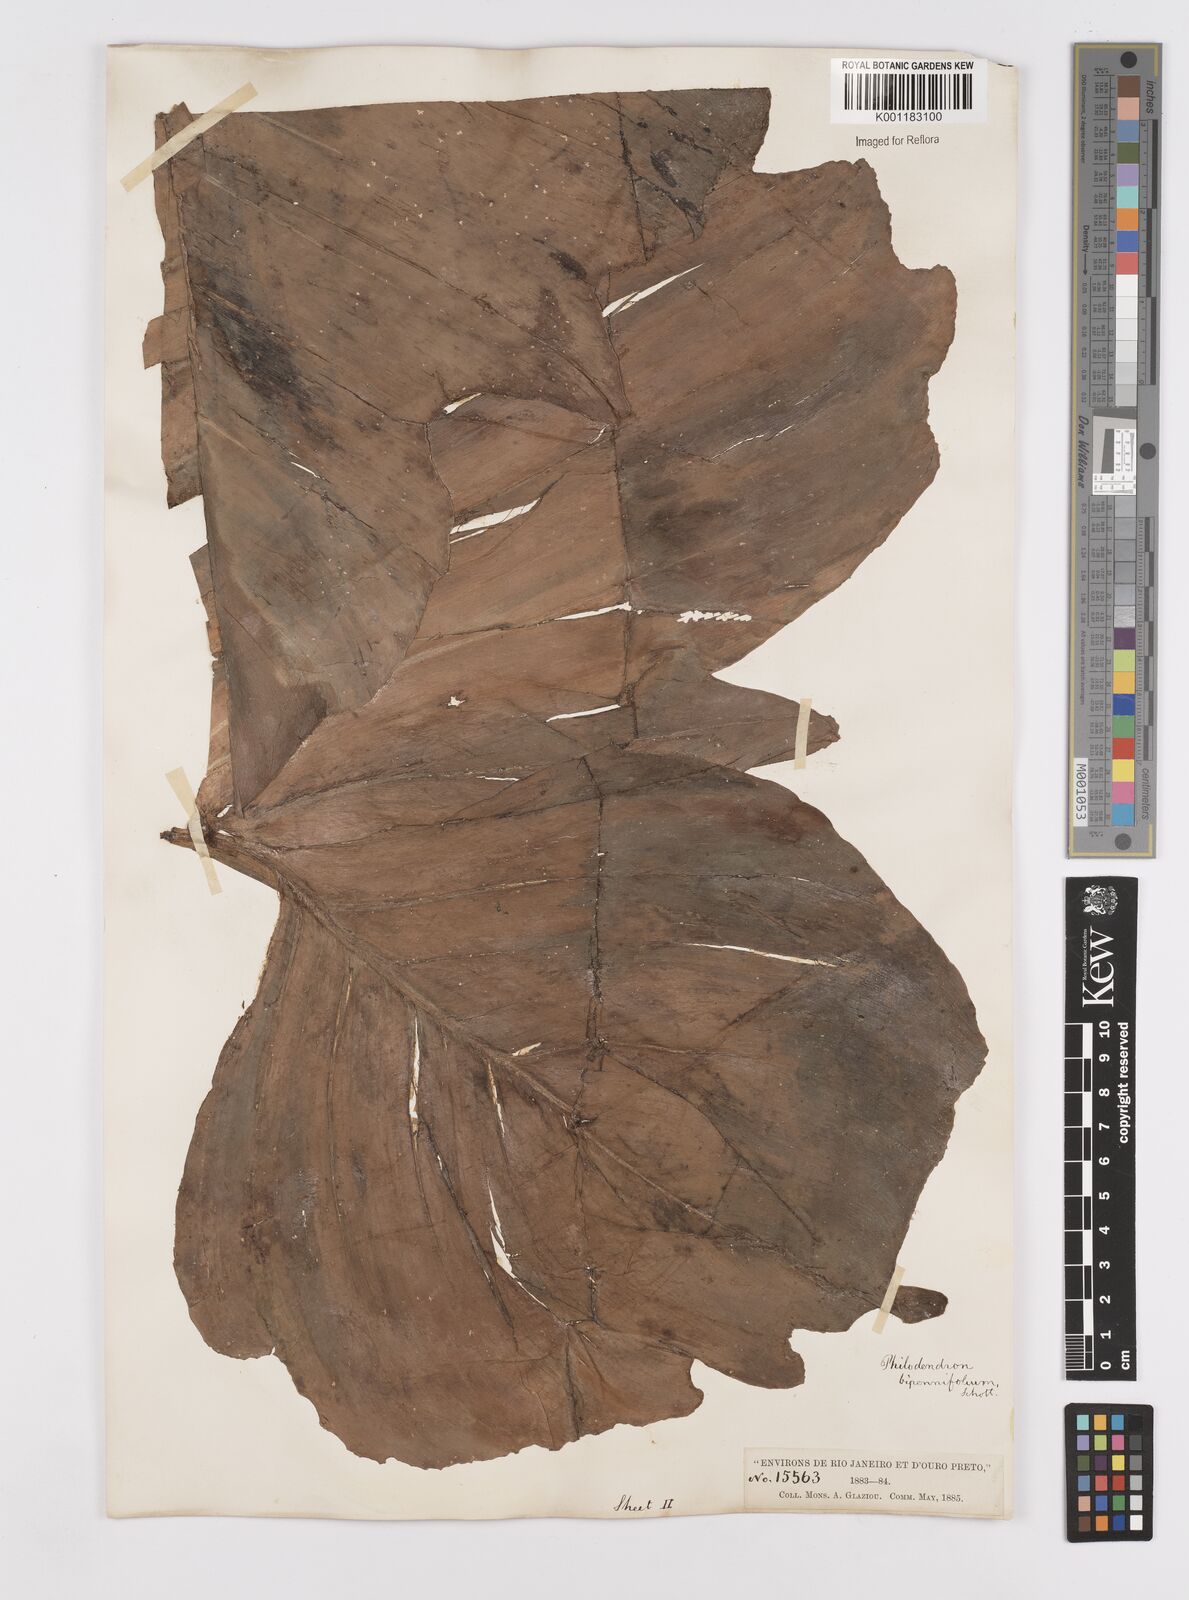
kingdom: Plantae
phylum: Tracheophyta
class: Liliopsida
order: Alismatales
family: Araceae
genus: Philodendron
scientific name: Philodendron bipennifolium
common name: Fiddle-leaf philodendron
